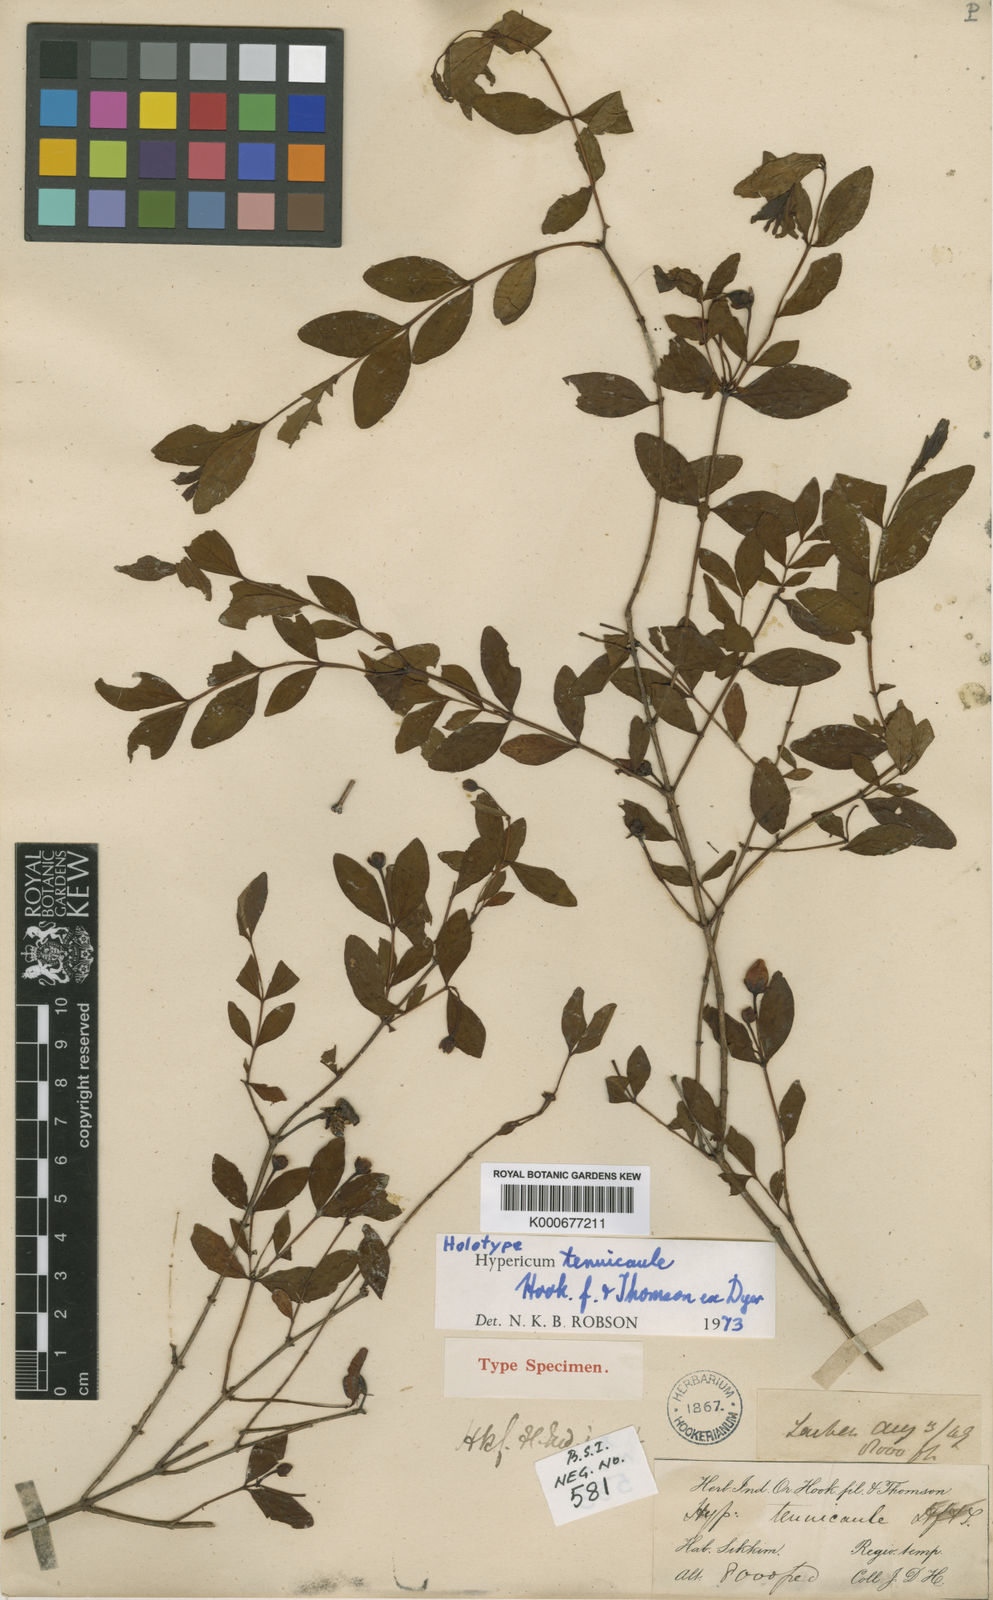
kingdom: Plantae
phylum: Tracheophyta
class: Magnoliopsida
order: Malpighiales
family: Hypericaceae
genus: Hypericum
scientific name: Hypericum tenuicaule
